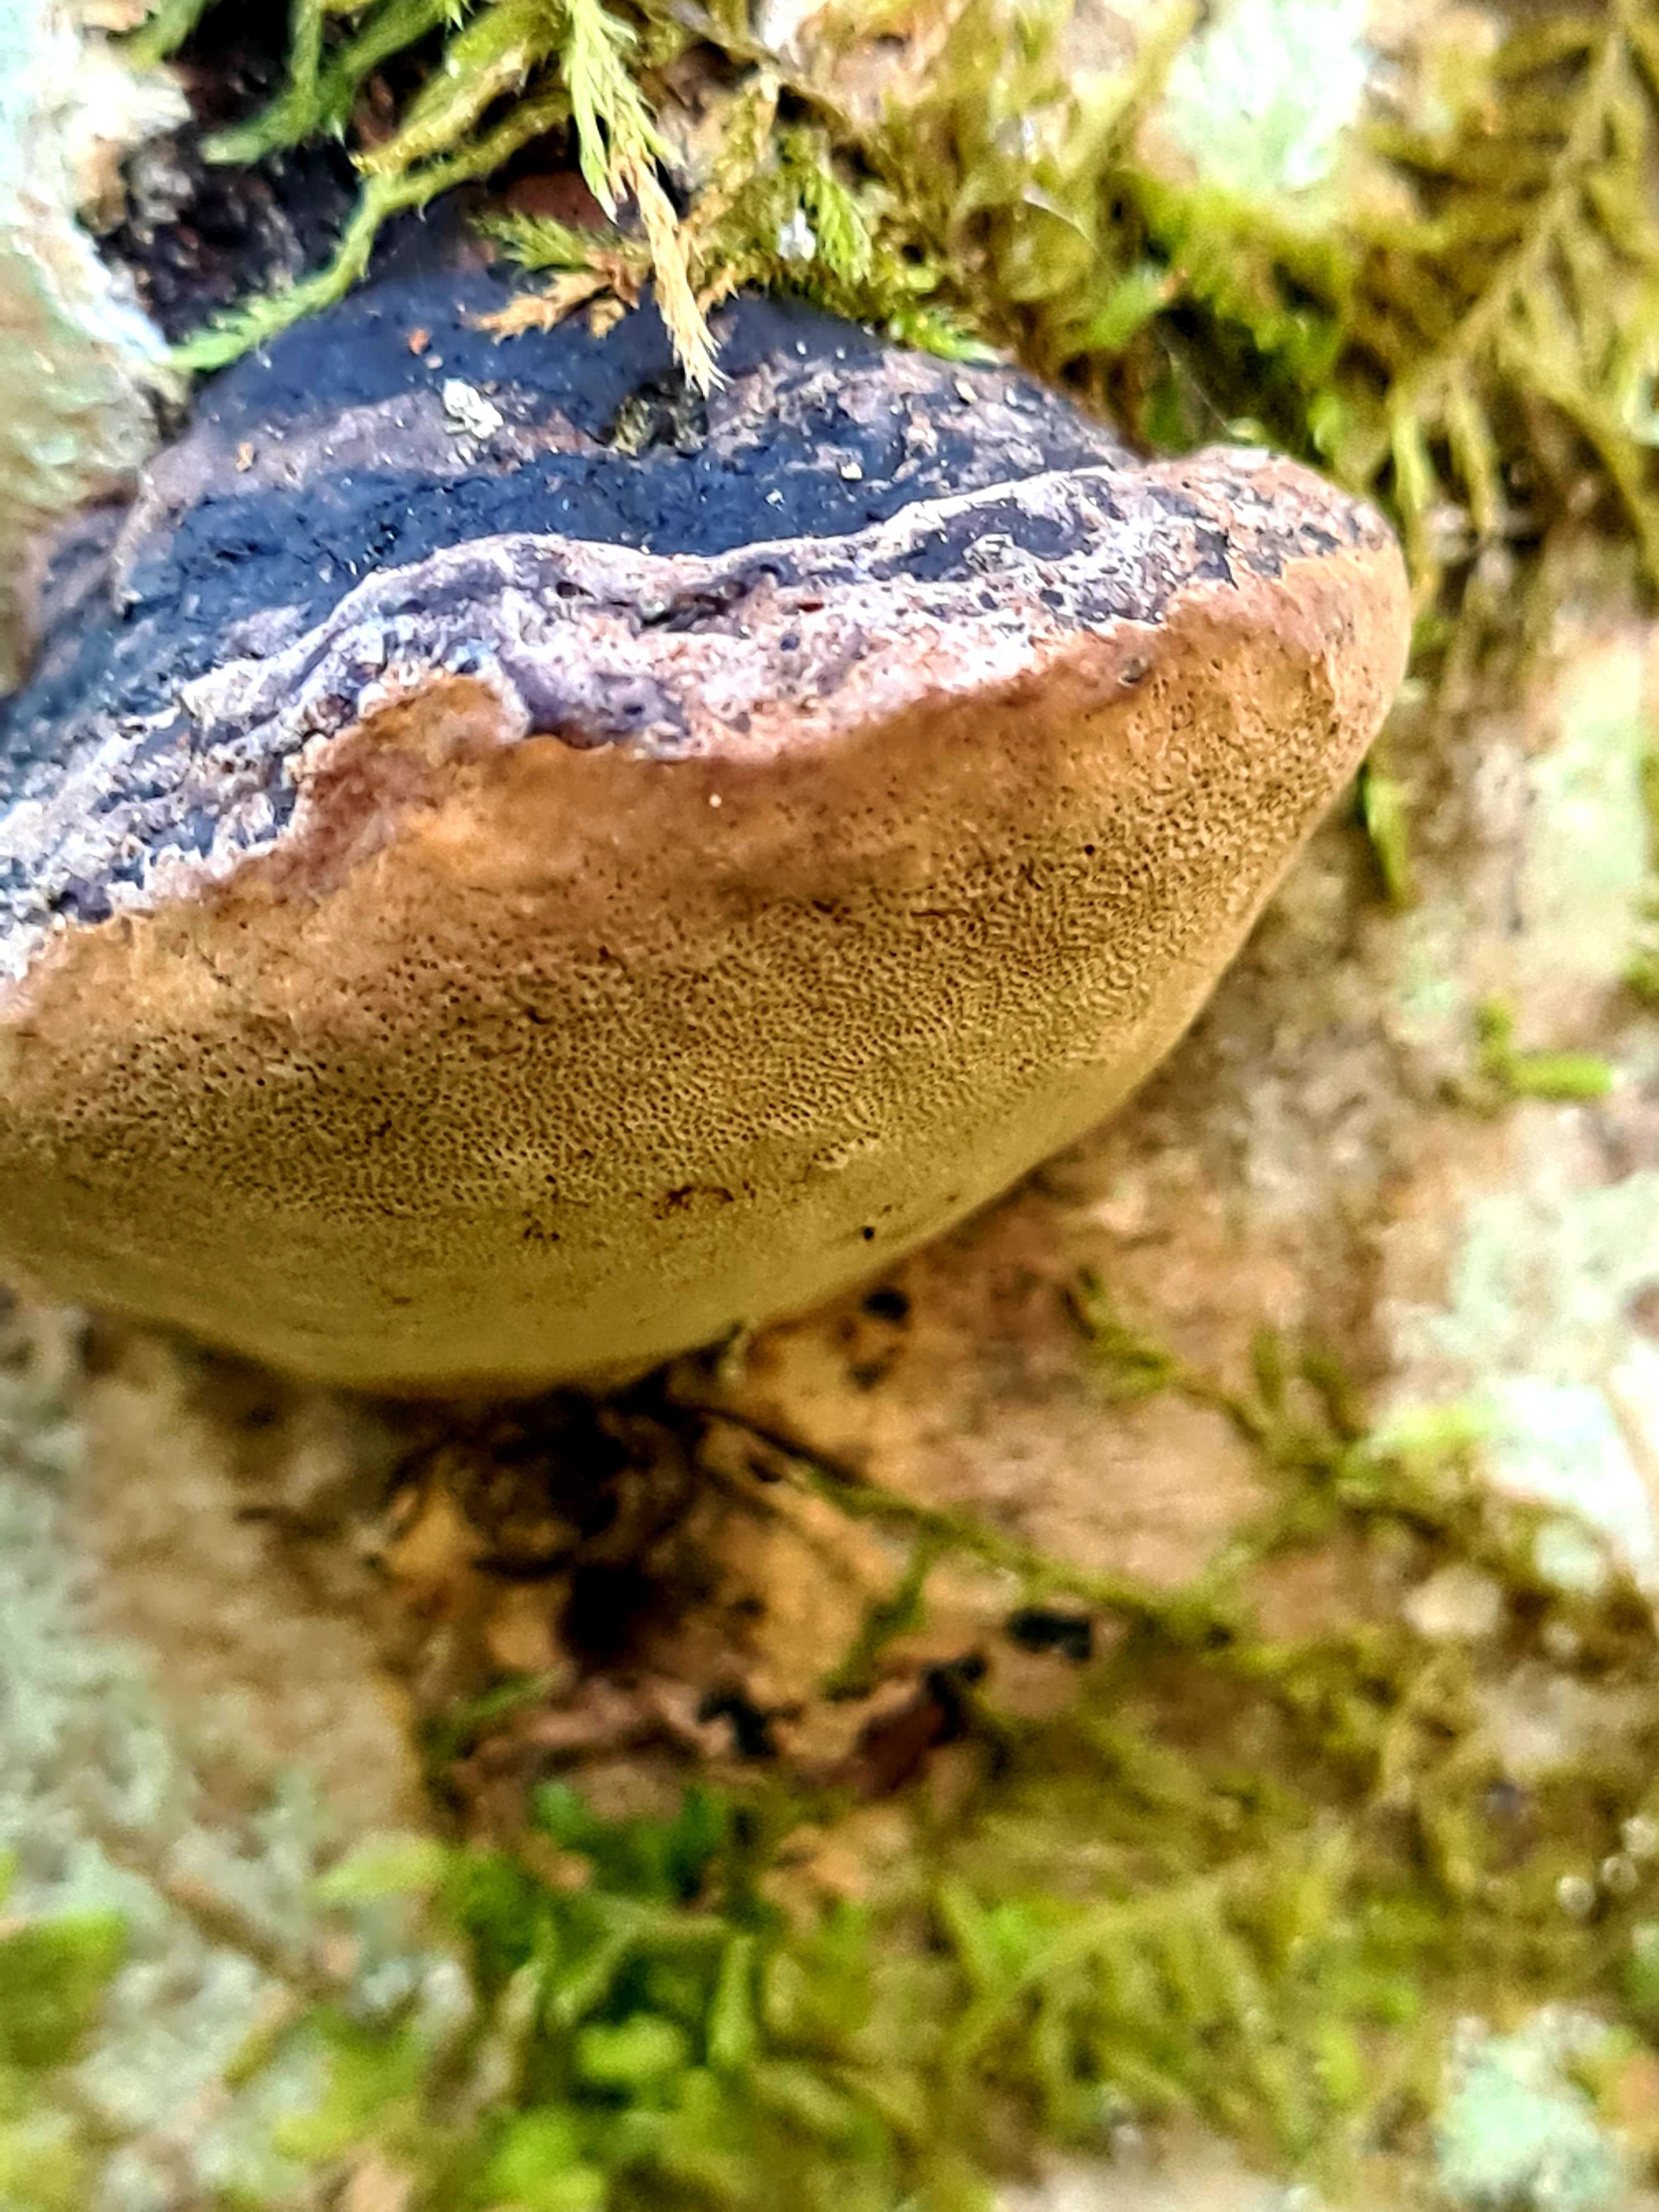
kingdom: Fungi
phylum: Basidiomycota
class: Agaricomycetes
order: Hymenochaetales
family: Hymenochaetaceae
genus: Phellinus
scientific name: Phellinus tremulae
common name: aspe-ildporesvamp
